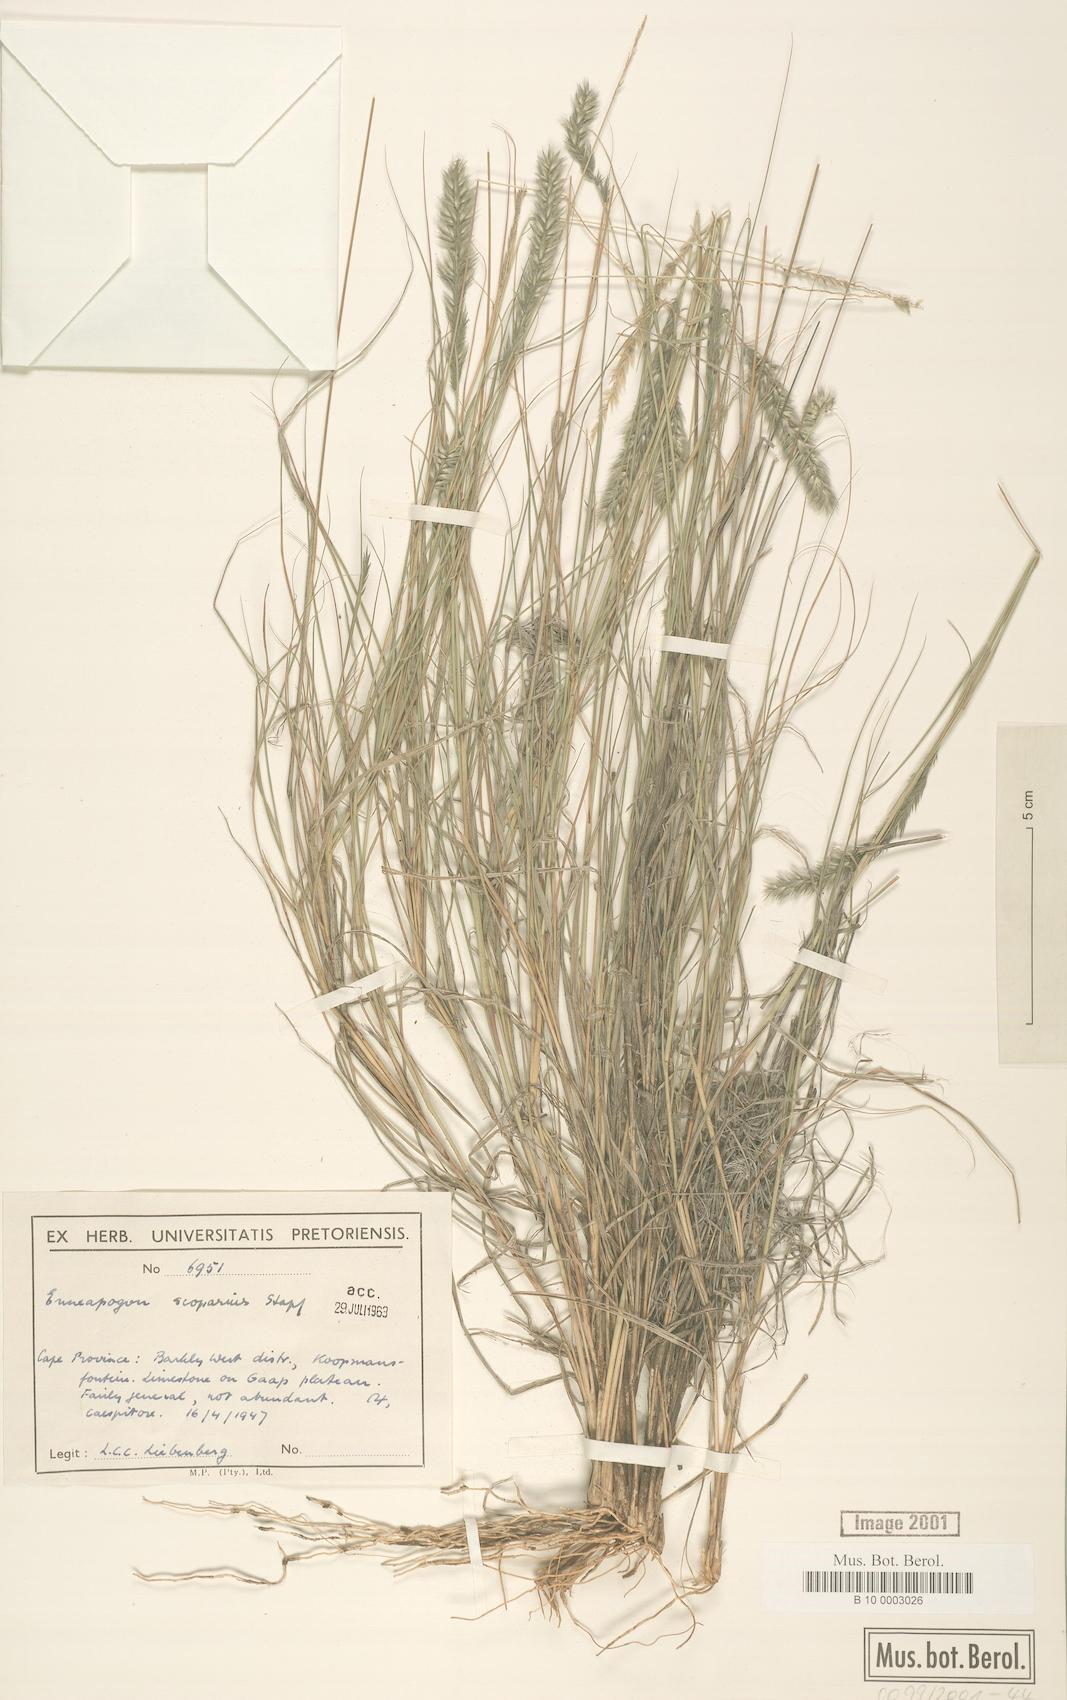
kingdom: Plantae
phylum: Tracheophyta
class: Liliopsida
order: Poales
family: Poaceae
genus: Enneapogon
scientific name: Enneapogon scoparius
